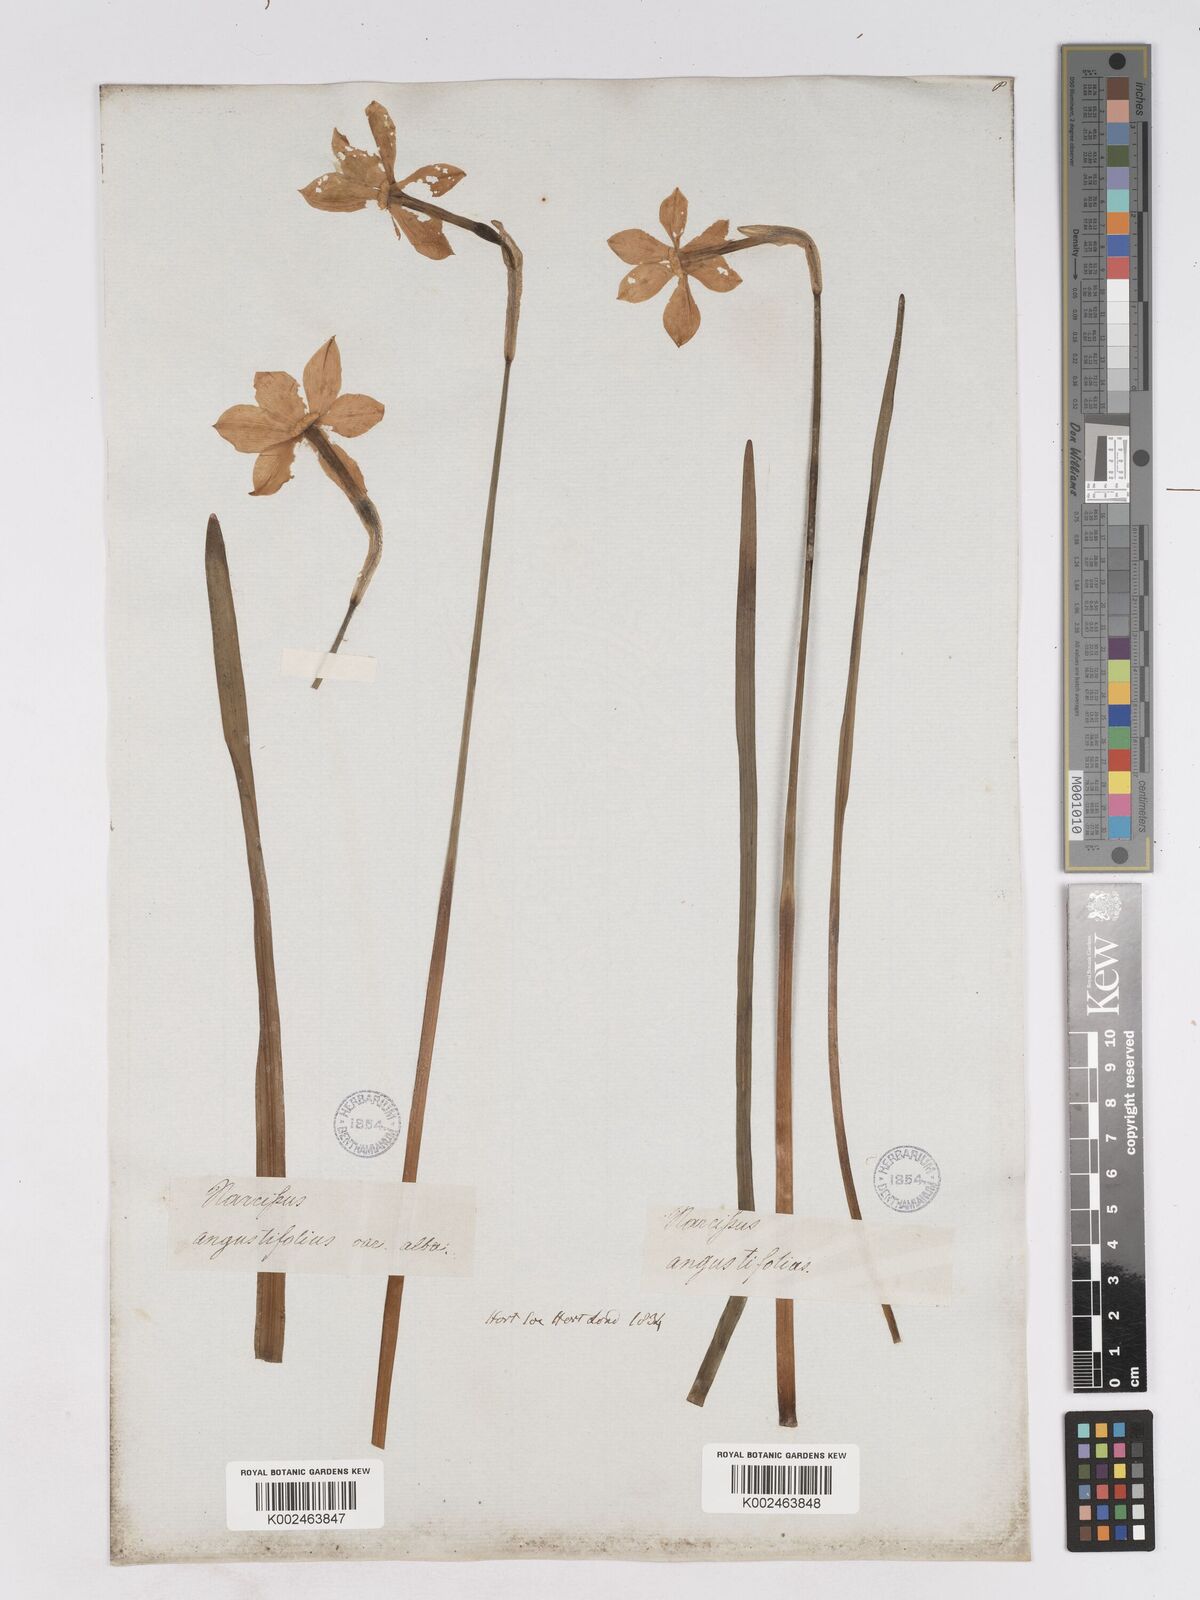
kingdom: Plantae
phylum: Tracheophyta
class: Liliopsida
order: Asparagales
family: Amaryllidaceae
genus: Narcissus
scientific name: Narcissus poeticus
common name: Pheasant's-eye daffodil
